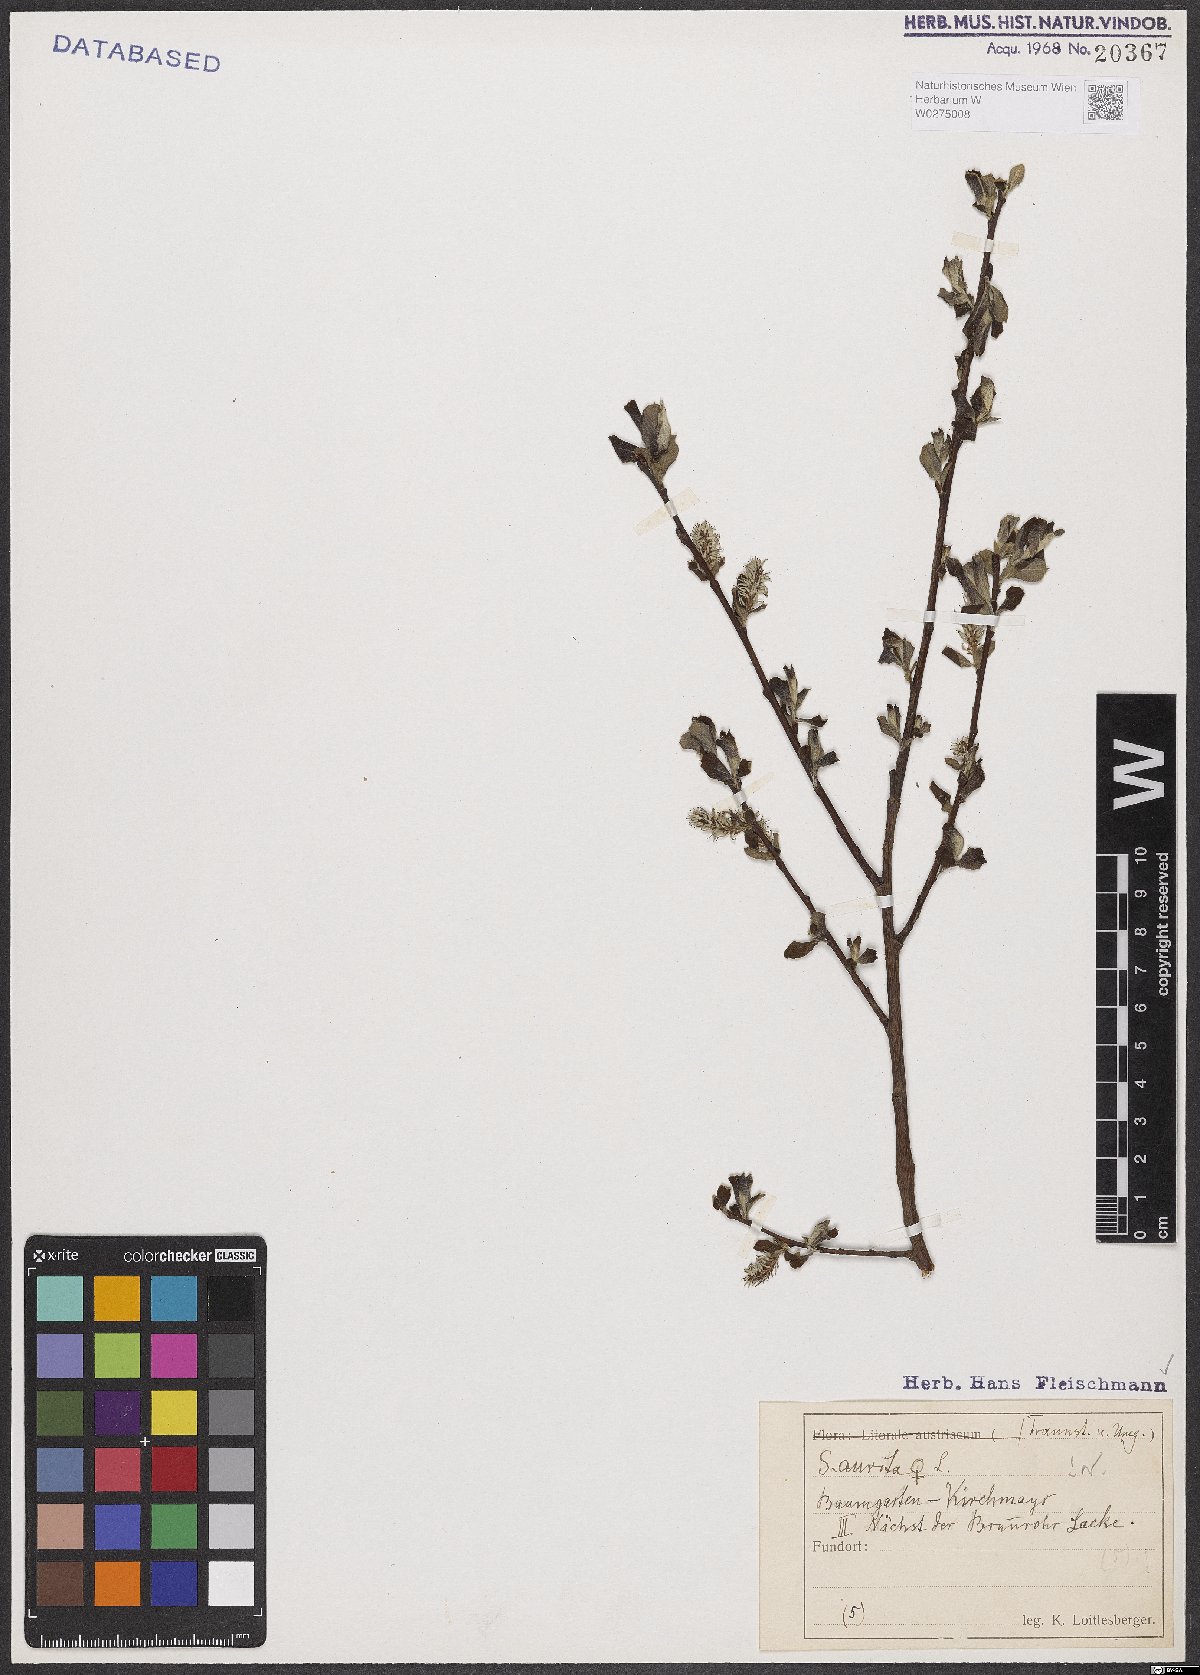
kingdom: Plantae
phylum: Tracheophyta
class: Magnoliopsida
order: Malpighiales
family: Salicaceae
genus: Salix
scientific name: Salix aurita
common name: Eared willow
